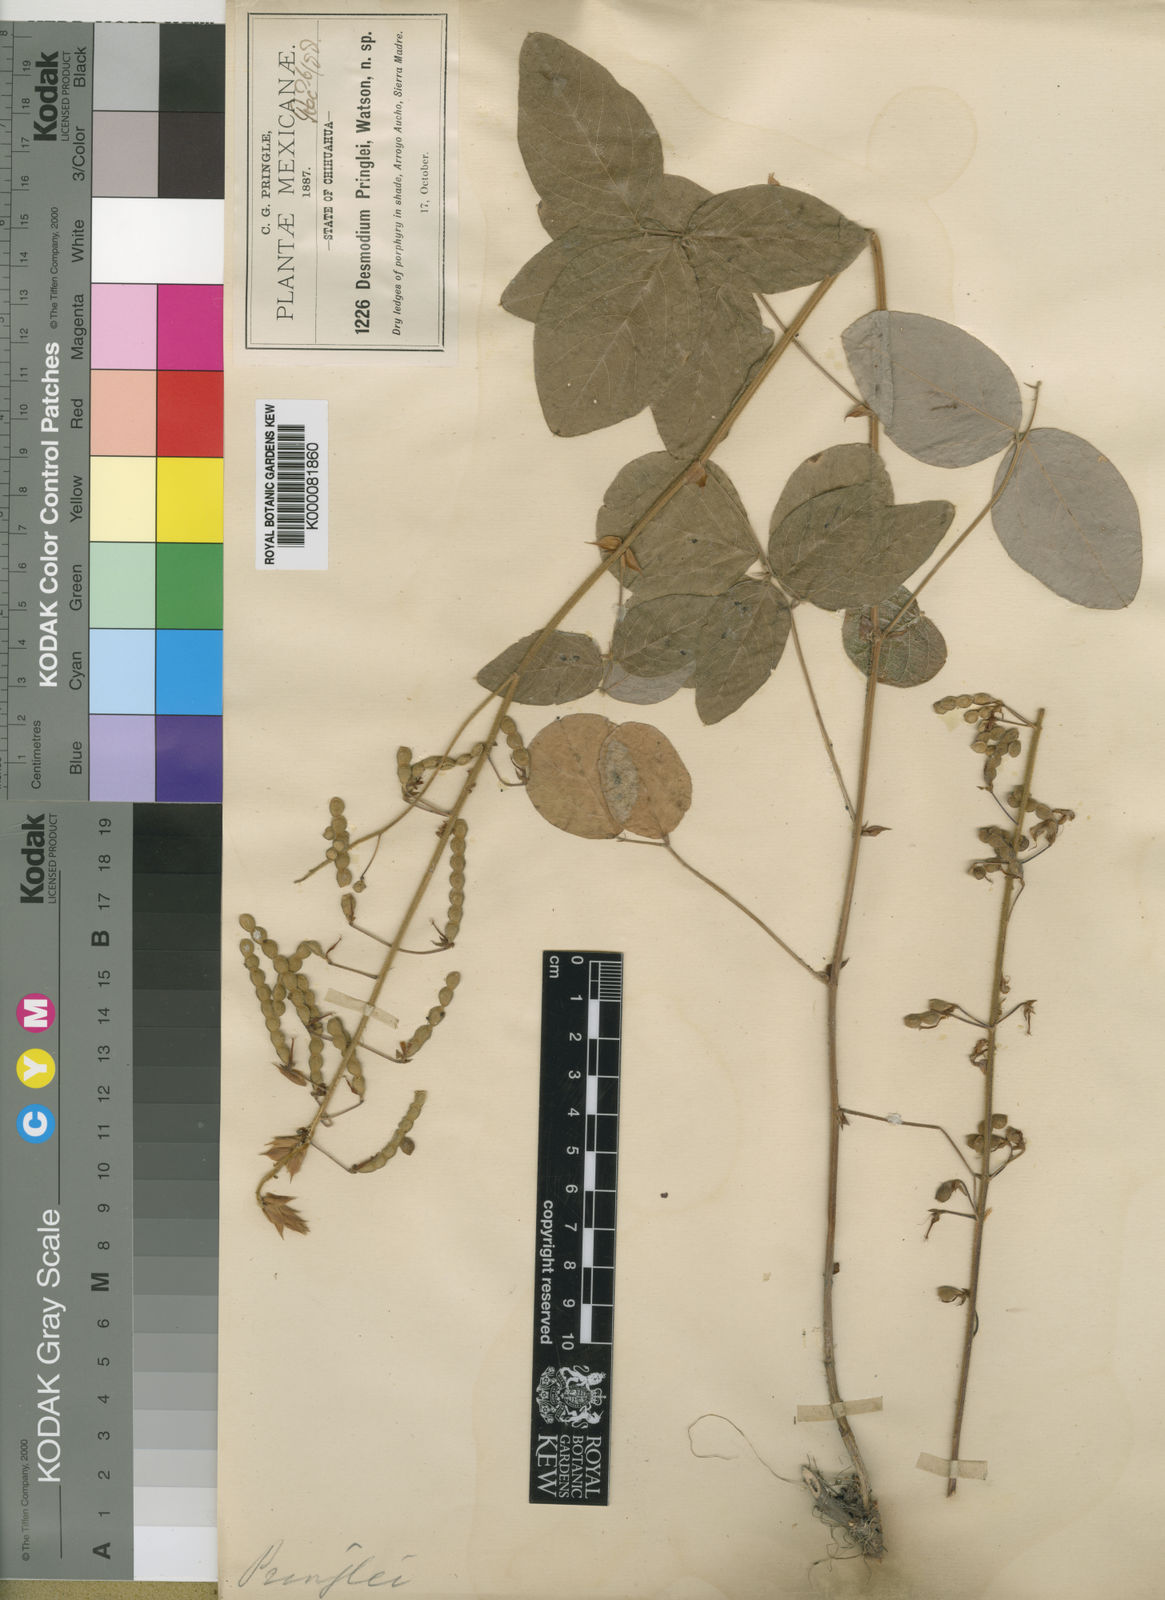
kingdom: Plantae
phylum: Tracheophyta
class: Magnoliopsida
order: Fabales
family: Fabaceae
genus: Desmodium
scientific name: Desmodium pringlei
